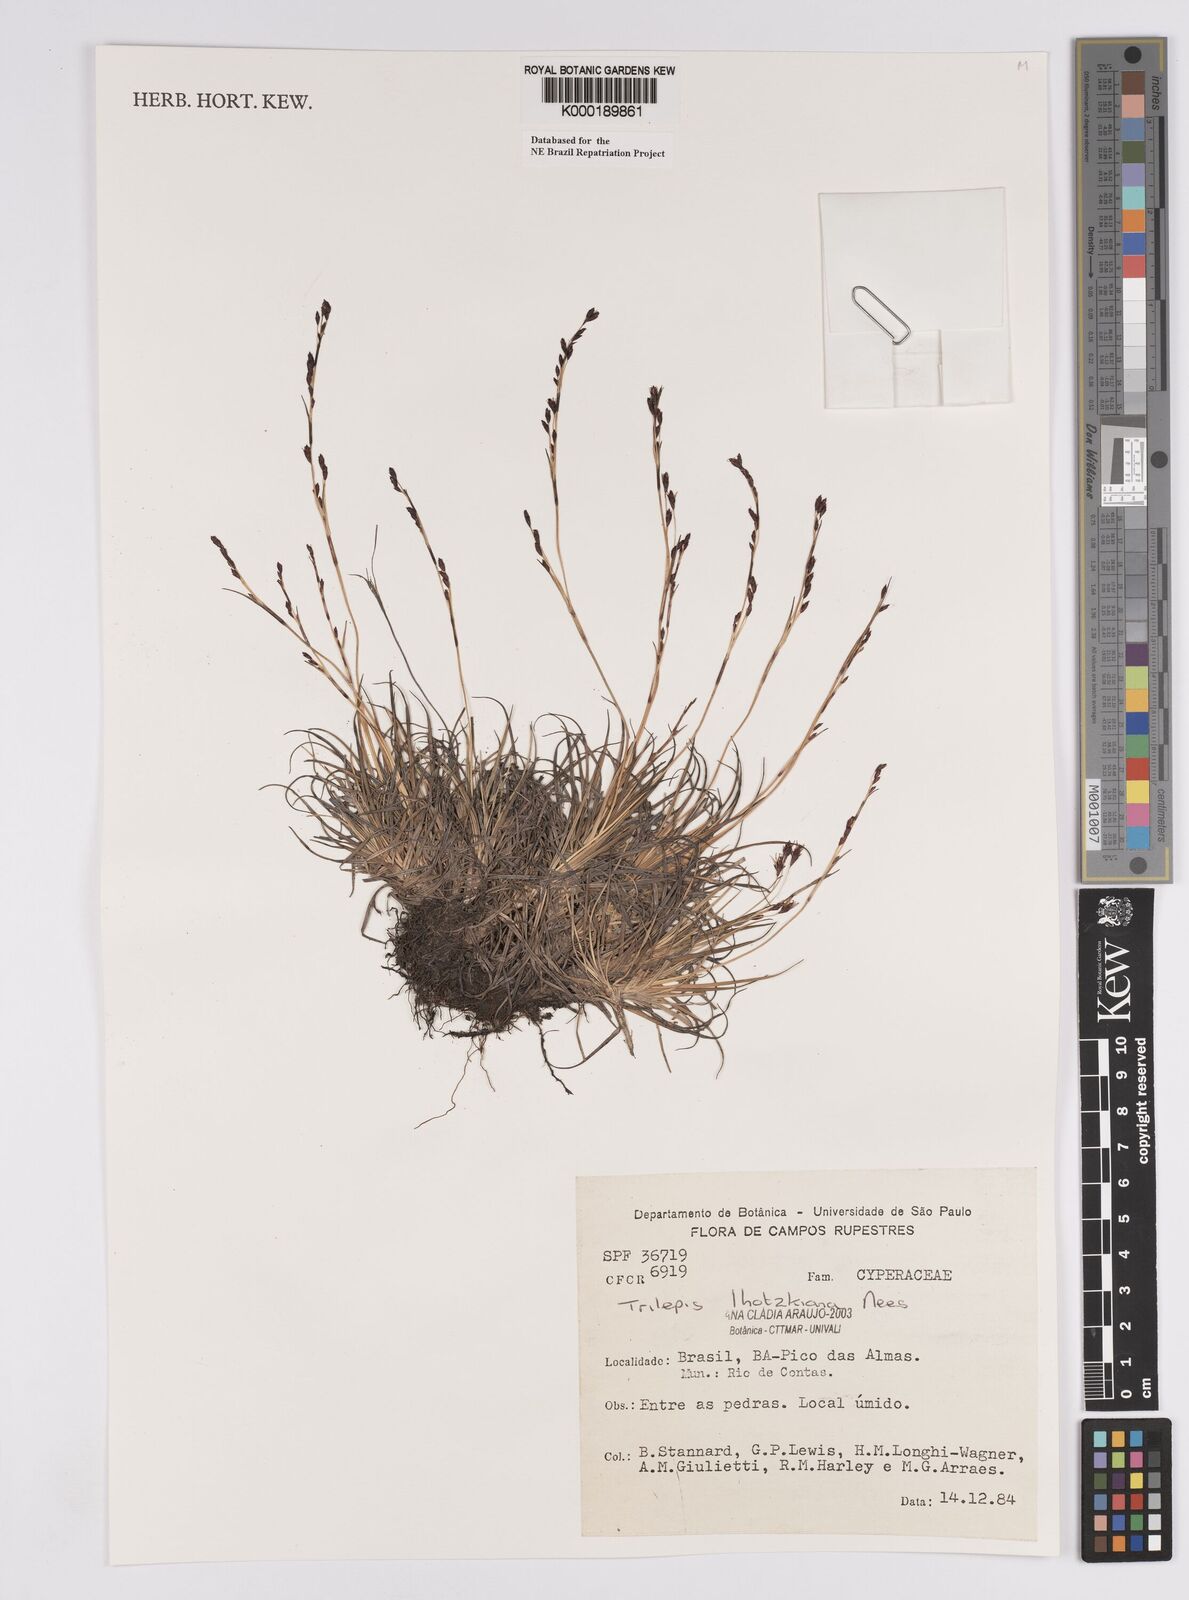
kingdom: Plantae
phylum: Tracheophyta
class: Liliopsida
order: Poales
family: Cyperaceae
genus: Trilepis
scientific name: Trilepis lhotzkiana
